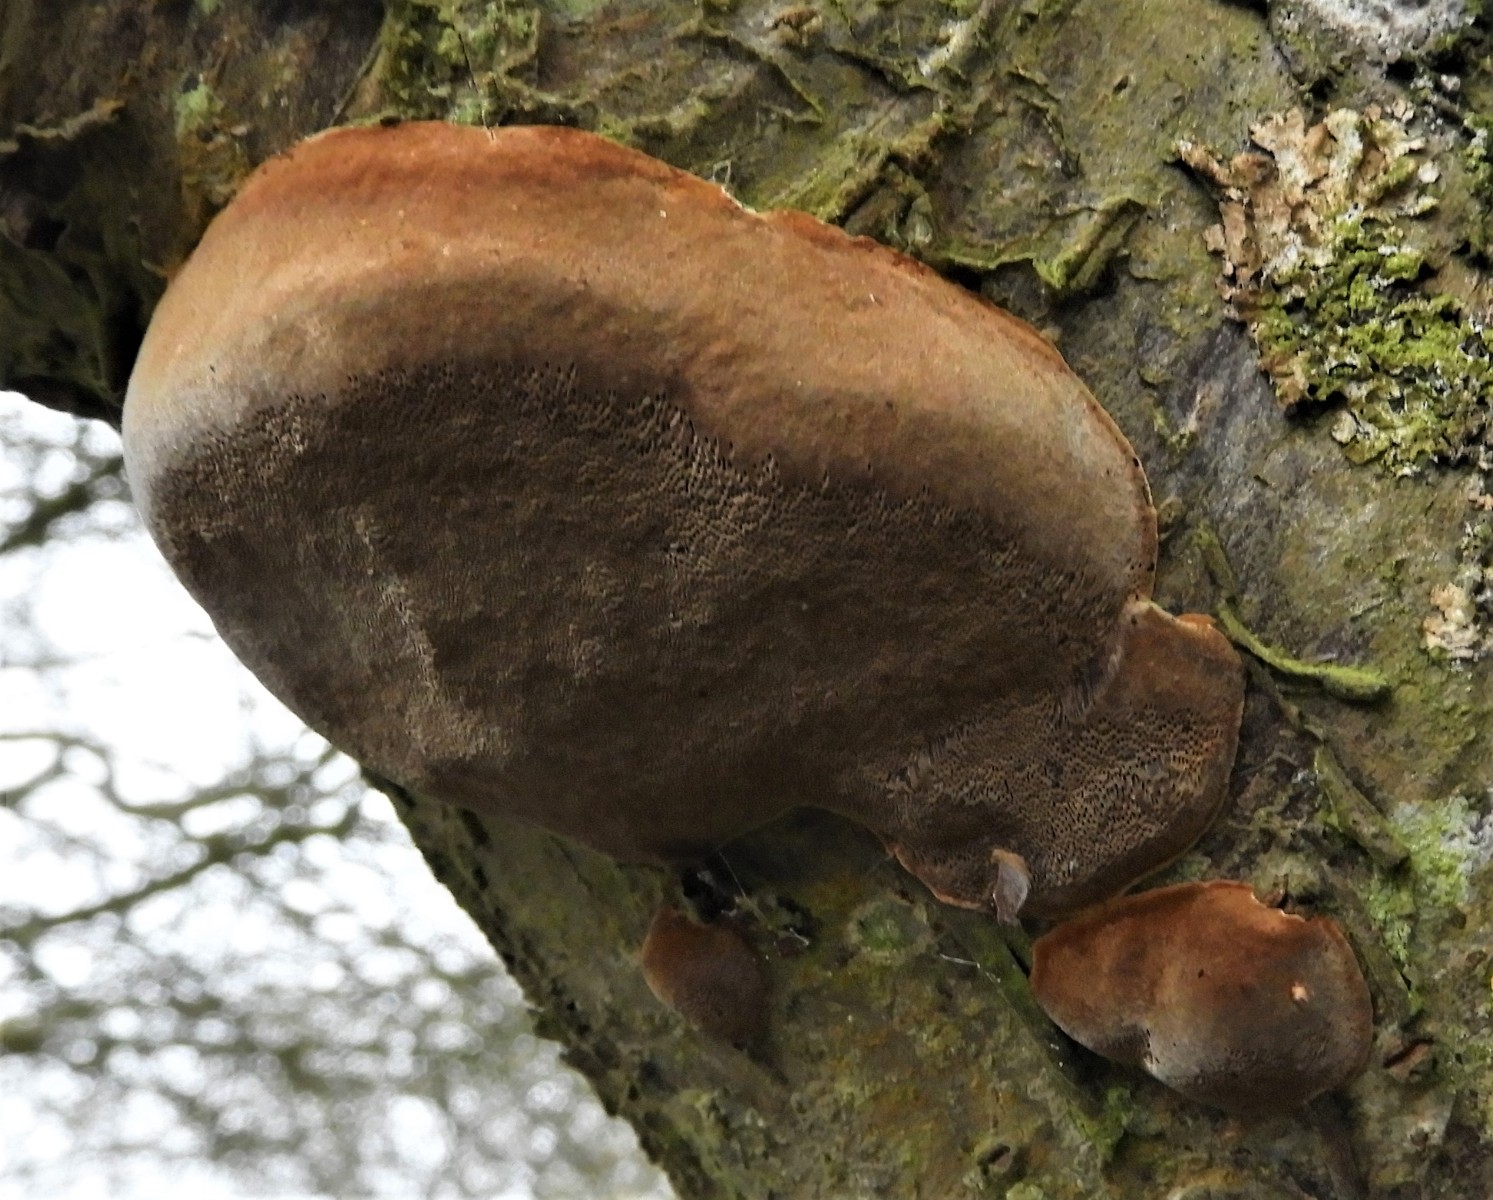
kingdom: Fungi
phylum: Basidiomycota
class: Agaricomycetes
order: Hymenochaetales
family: Hymenochaetaceae
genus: Phellinus
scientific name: Phellinus pomaceus
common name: blomme-ildporesvamp
